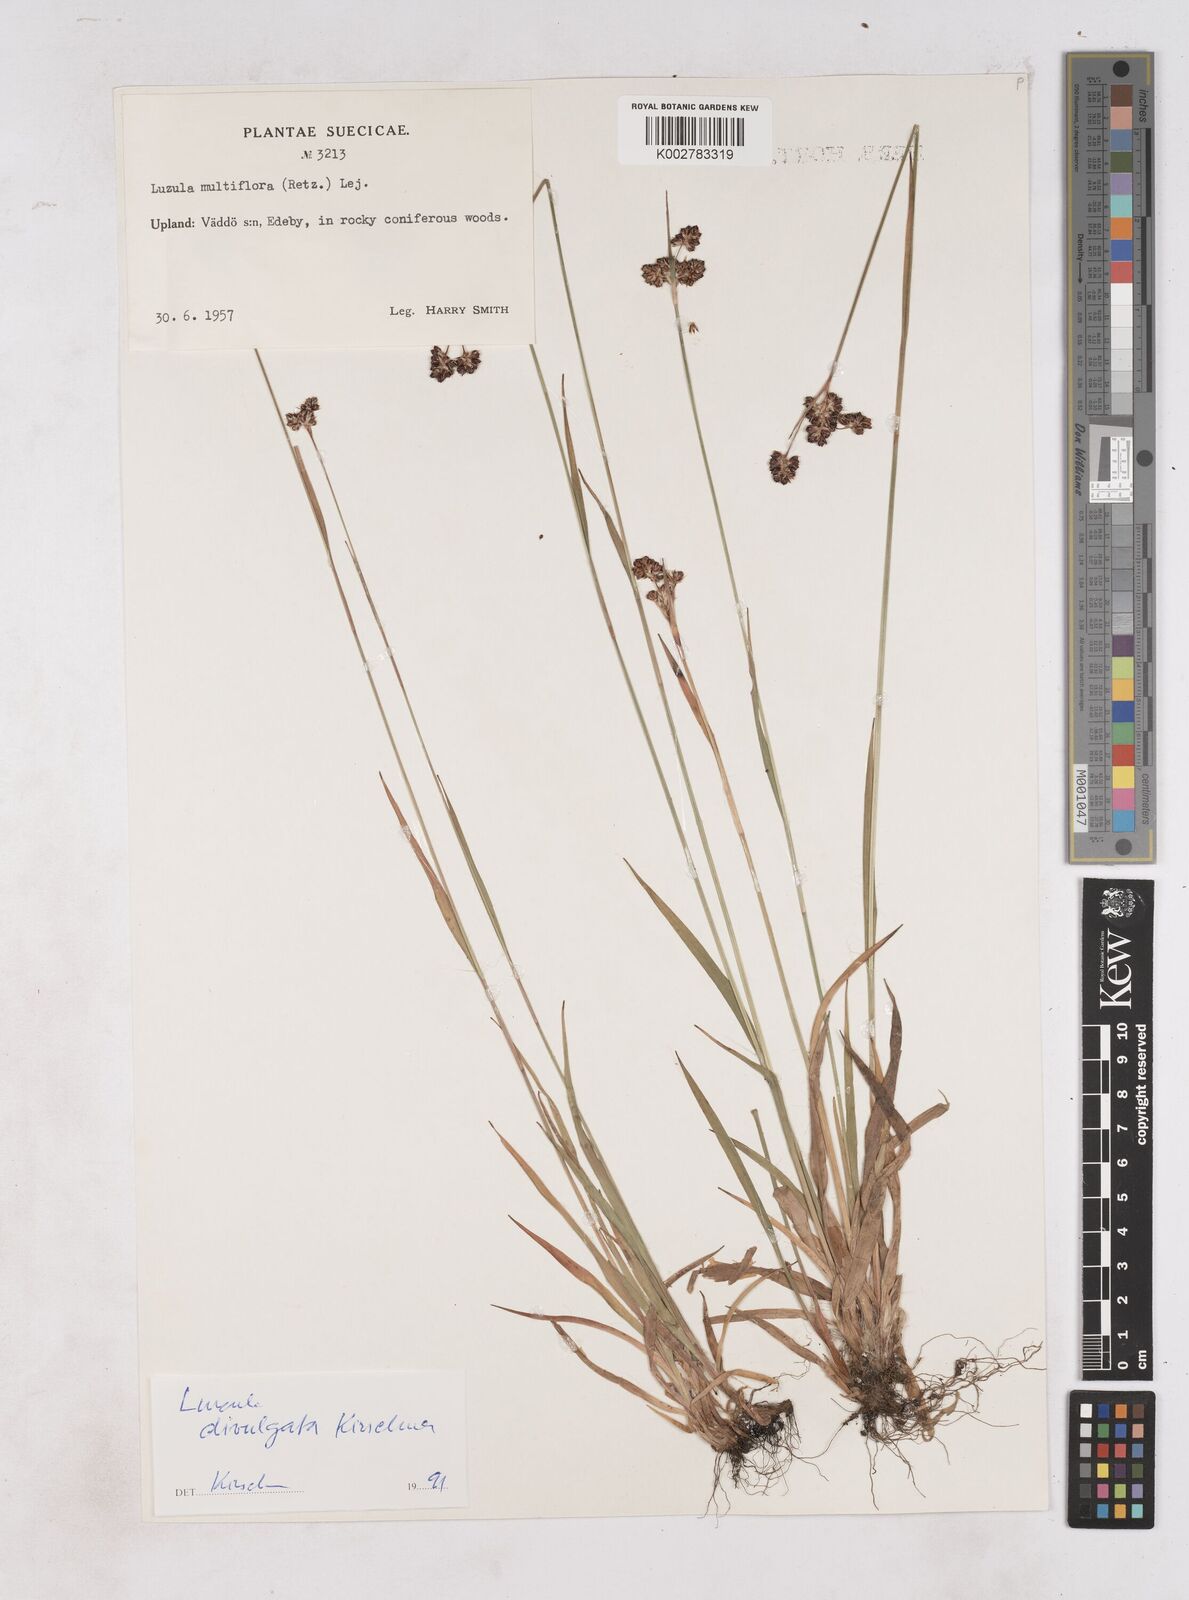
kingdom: Plantae
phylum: Tracheophyta
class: Liliopsida
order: Poales
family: Juncaceae
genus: Luzula
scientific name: Luzula multiflora
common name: Heath wood-rush
